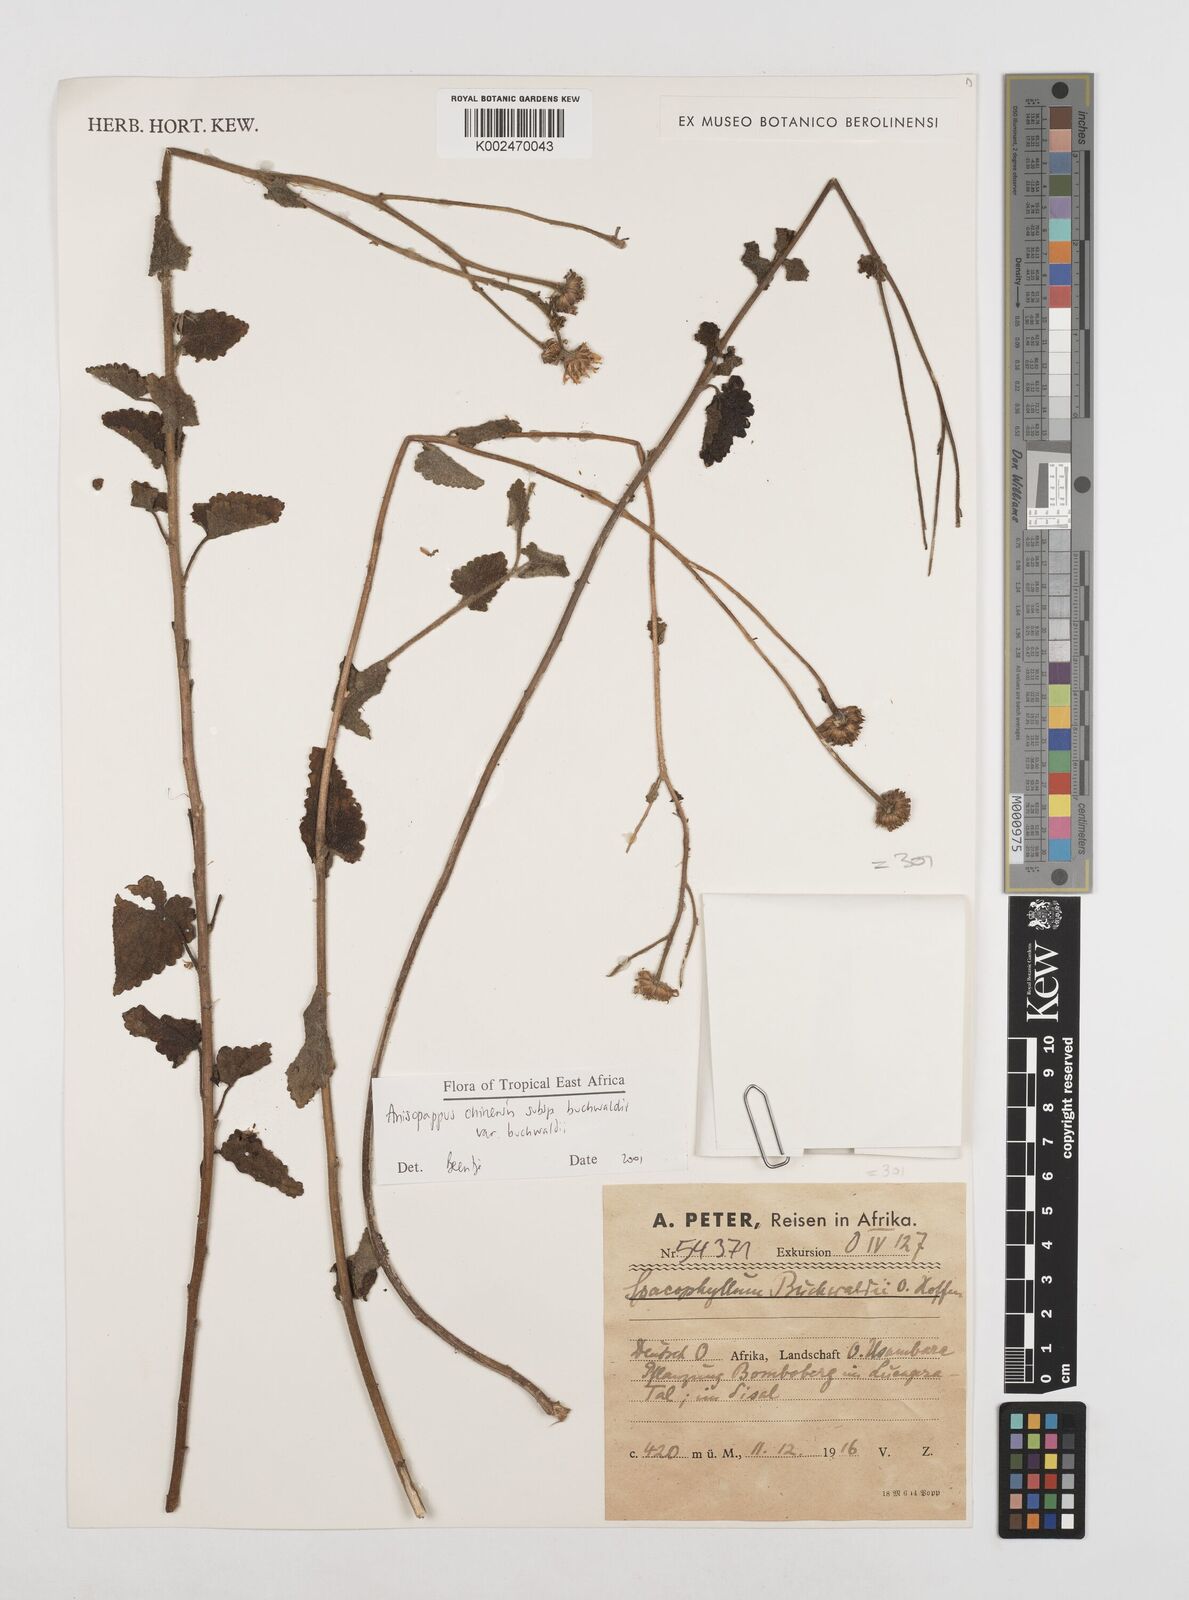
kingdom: Plantae
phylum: Tracheophyta
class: Magnoliopsida
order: Asterales
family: Asteraceae
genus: Anisopappus
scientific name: Anisopappus africanus
